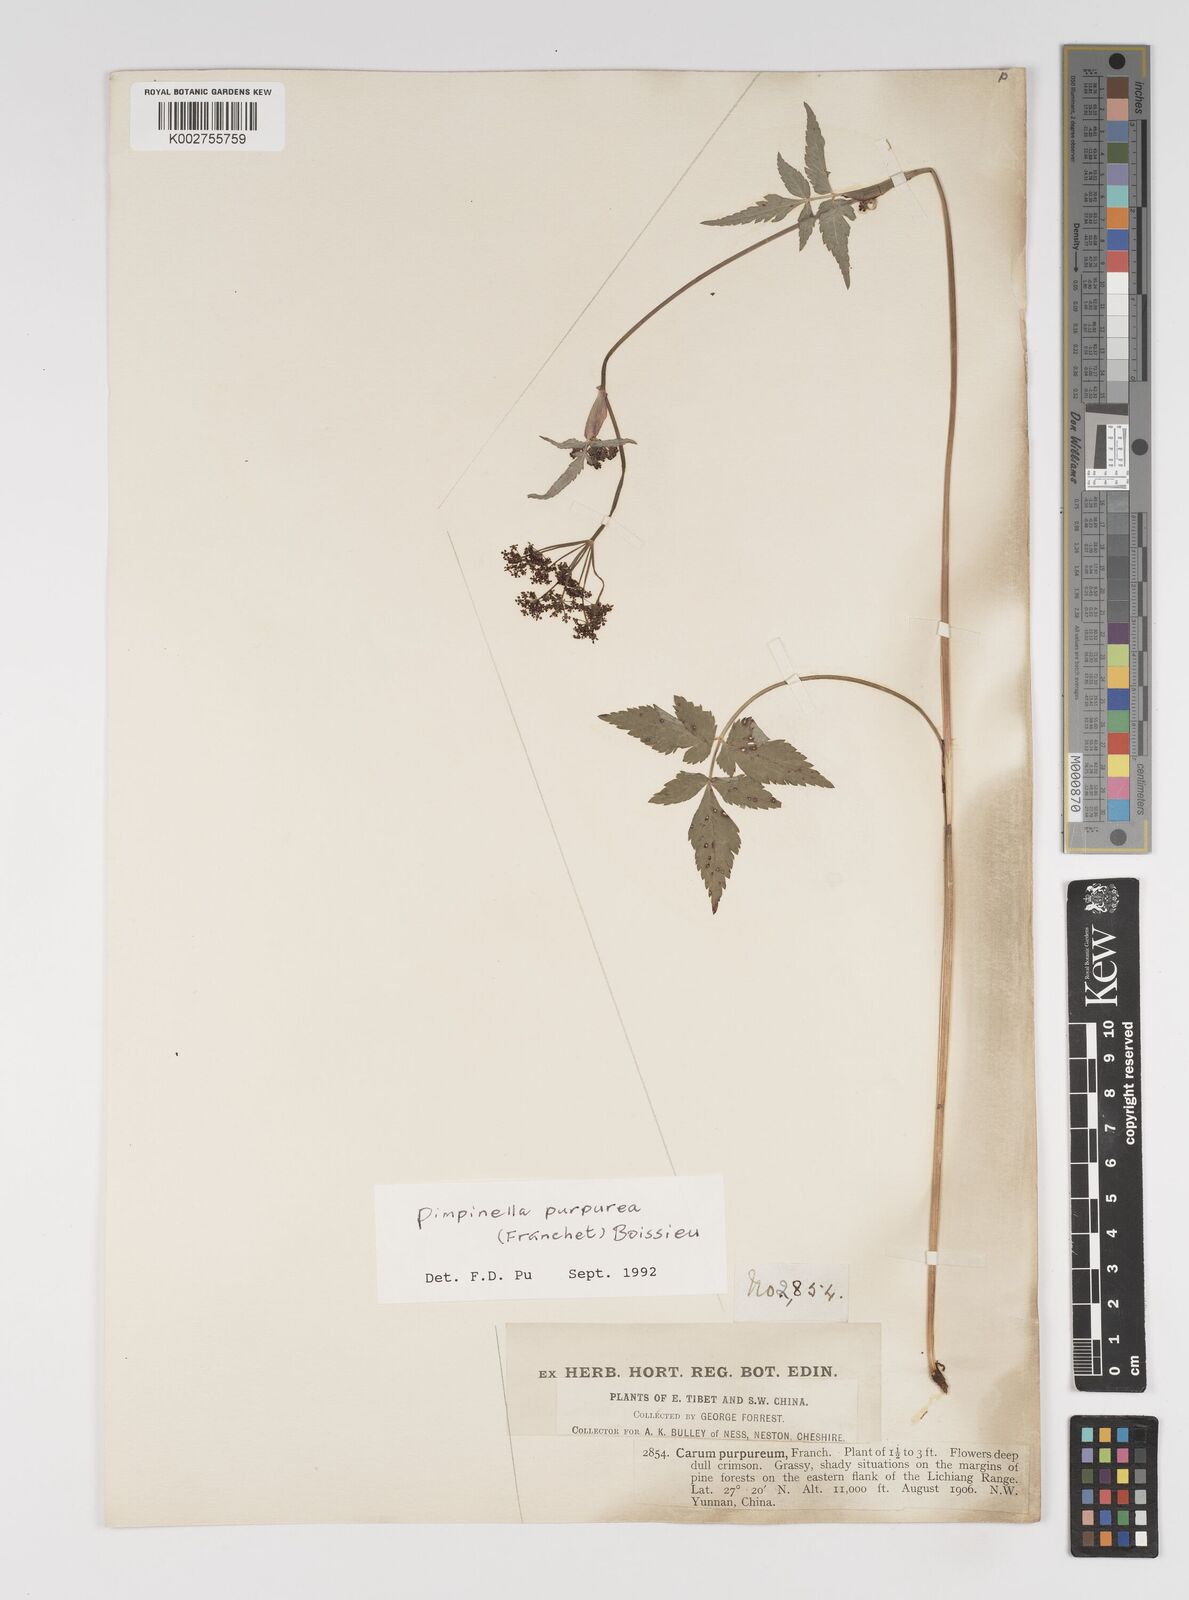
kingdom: Plantae
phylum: Tracheophyta
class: Magnoliopsida
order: Apiales
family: Apiaceae
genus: Pimpinella
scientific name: Pimpinella purpurea
